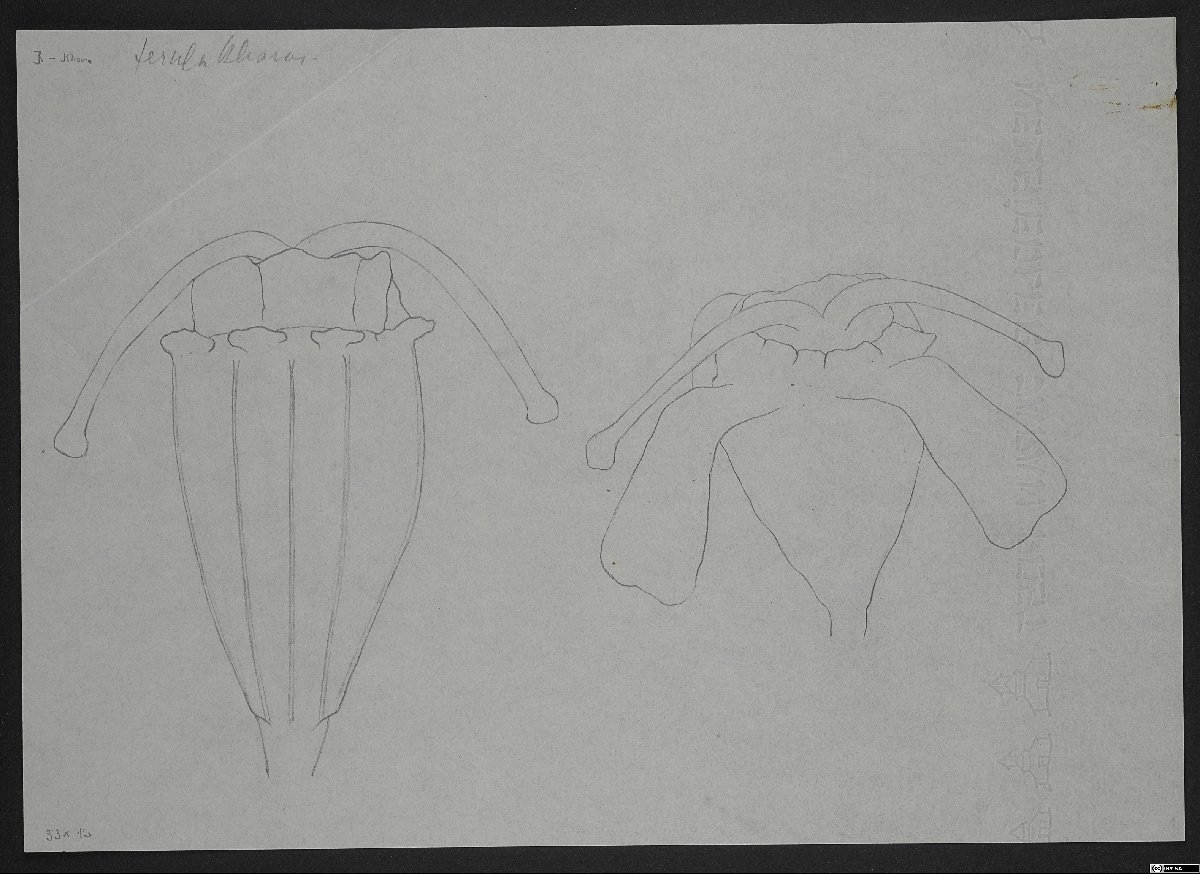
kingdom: Plantae
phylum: Tracheophyta
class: Magnoliopsida
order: Apiales
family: Apiaceae
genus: Ferula
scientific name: Ferula szowitsiana
